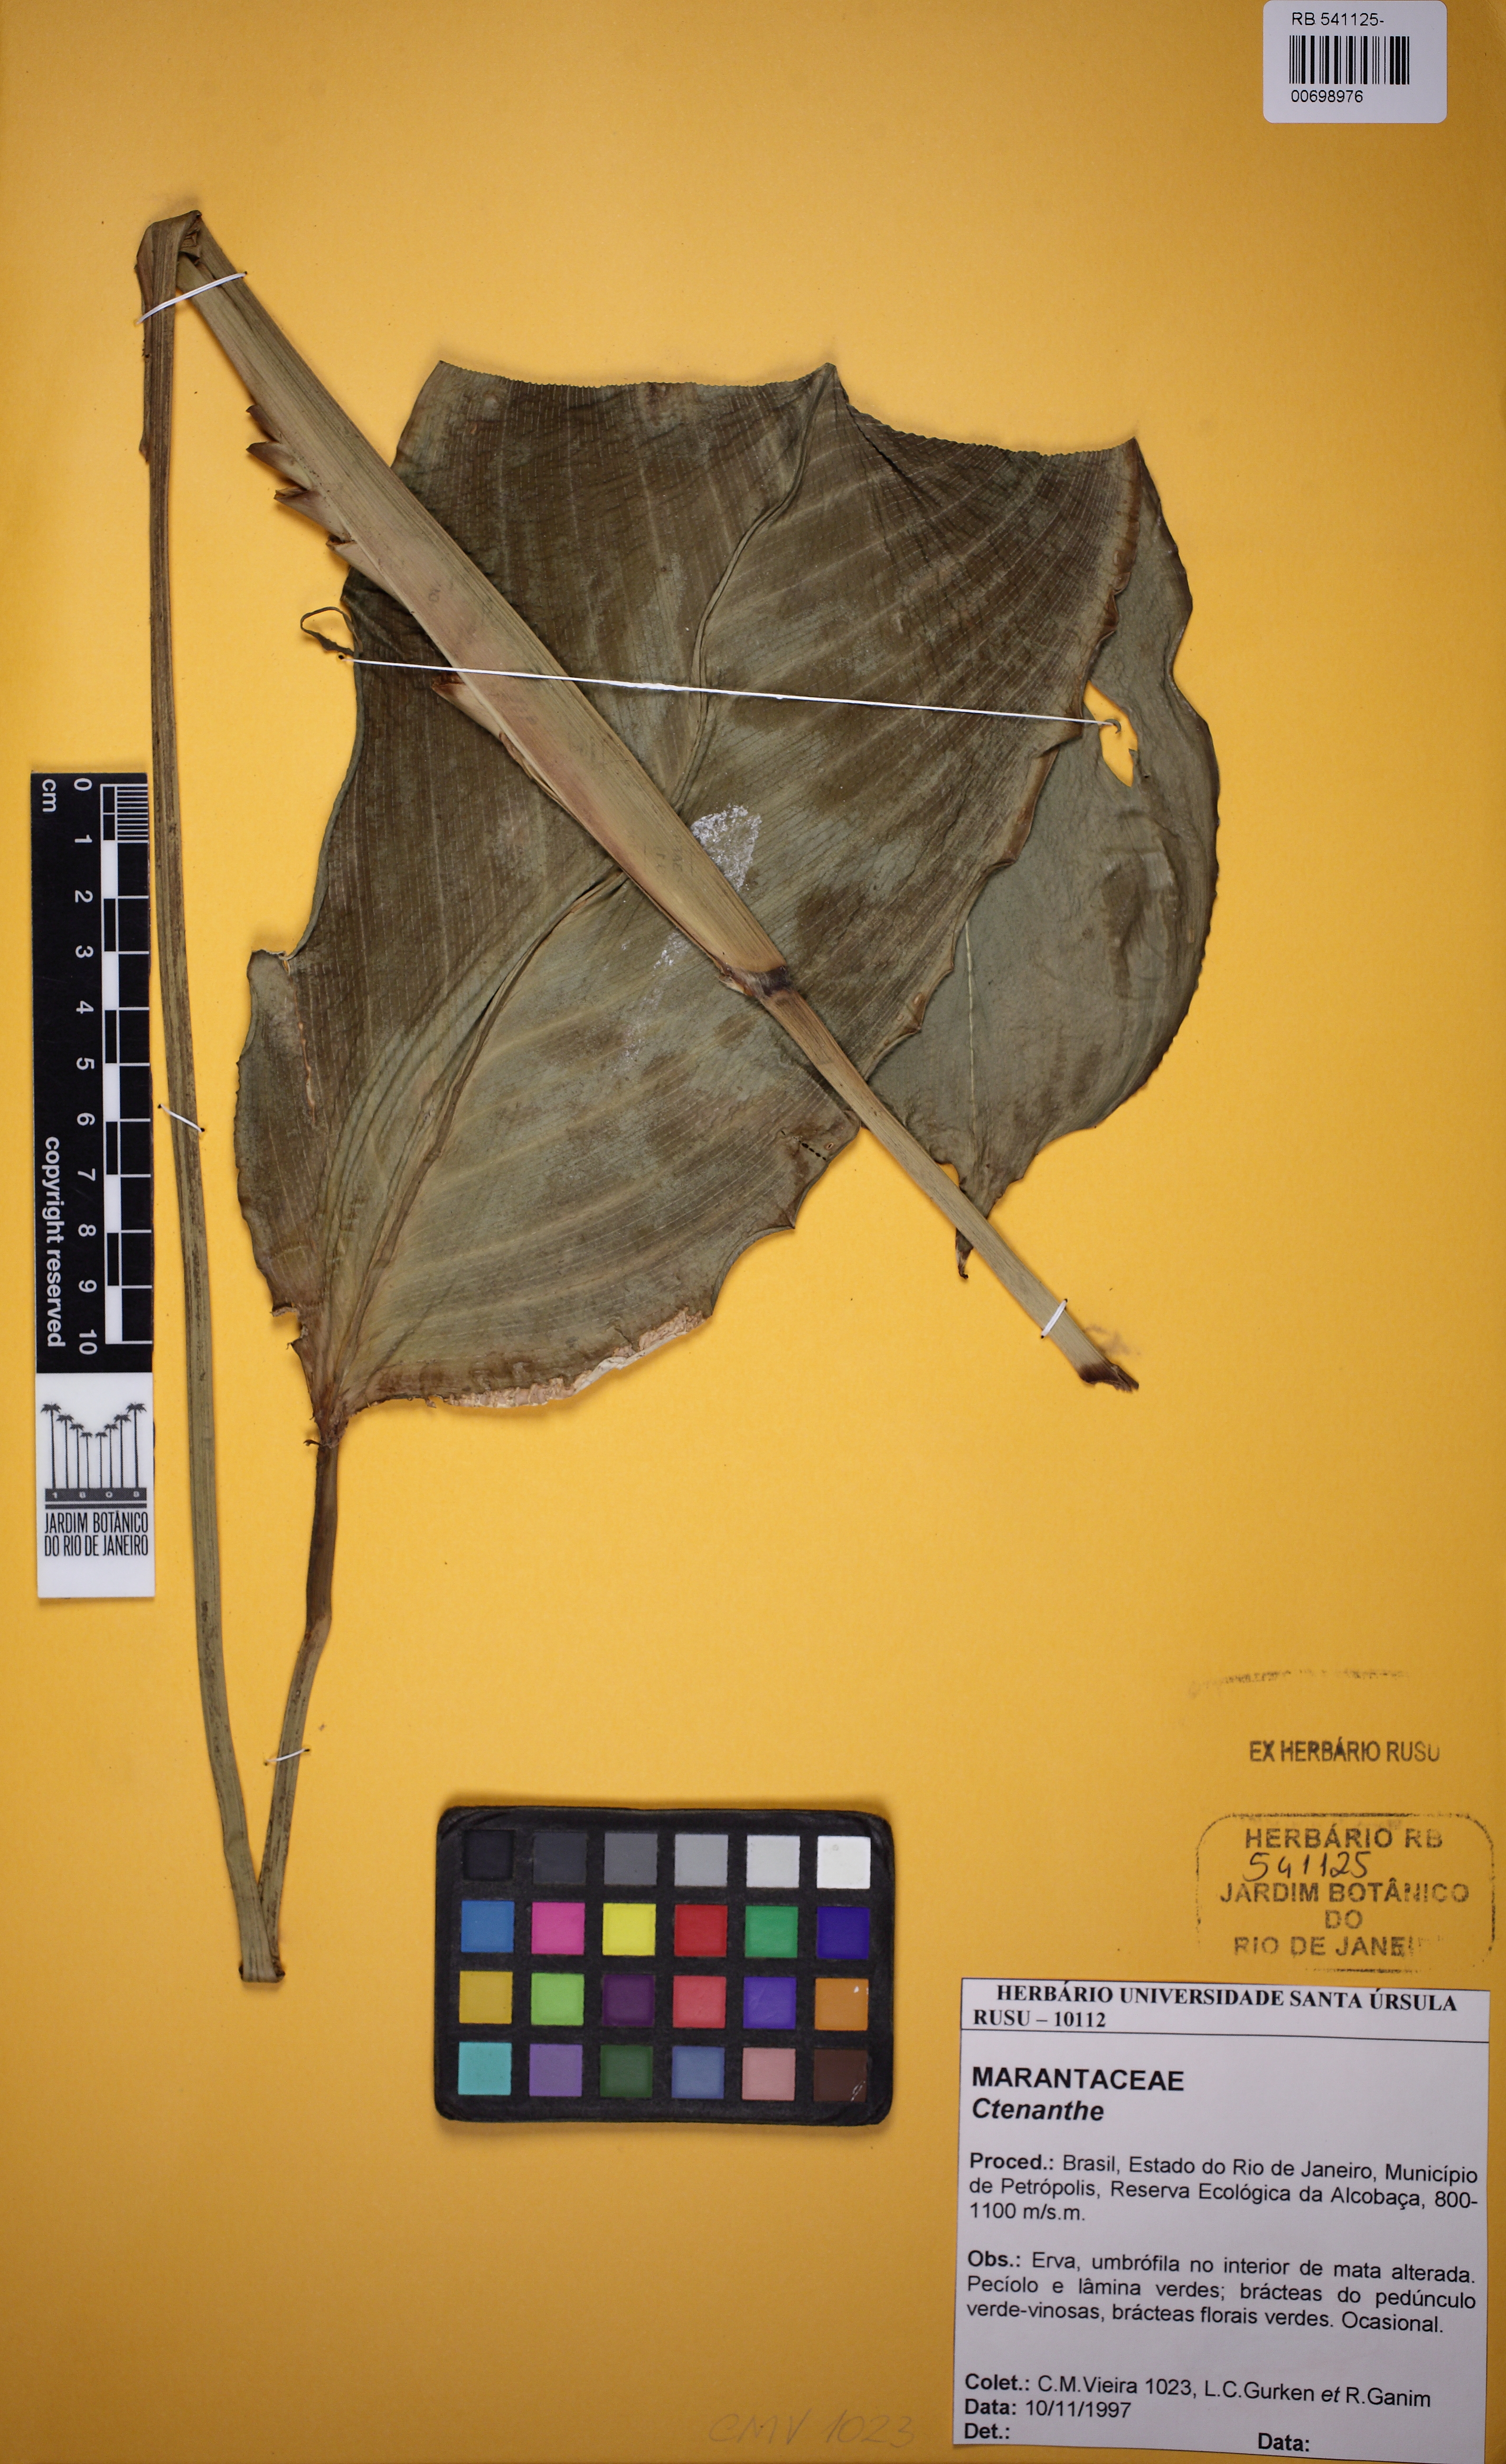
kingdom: Plantae
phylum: Tracheophyta
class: Liliopsida
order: Zingiberales
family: Marantaceae
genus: Ctenanthe
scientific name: Ctenanthe
